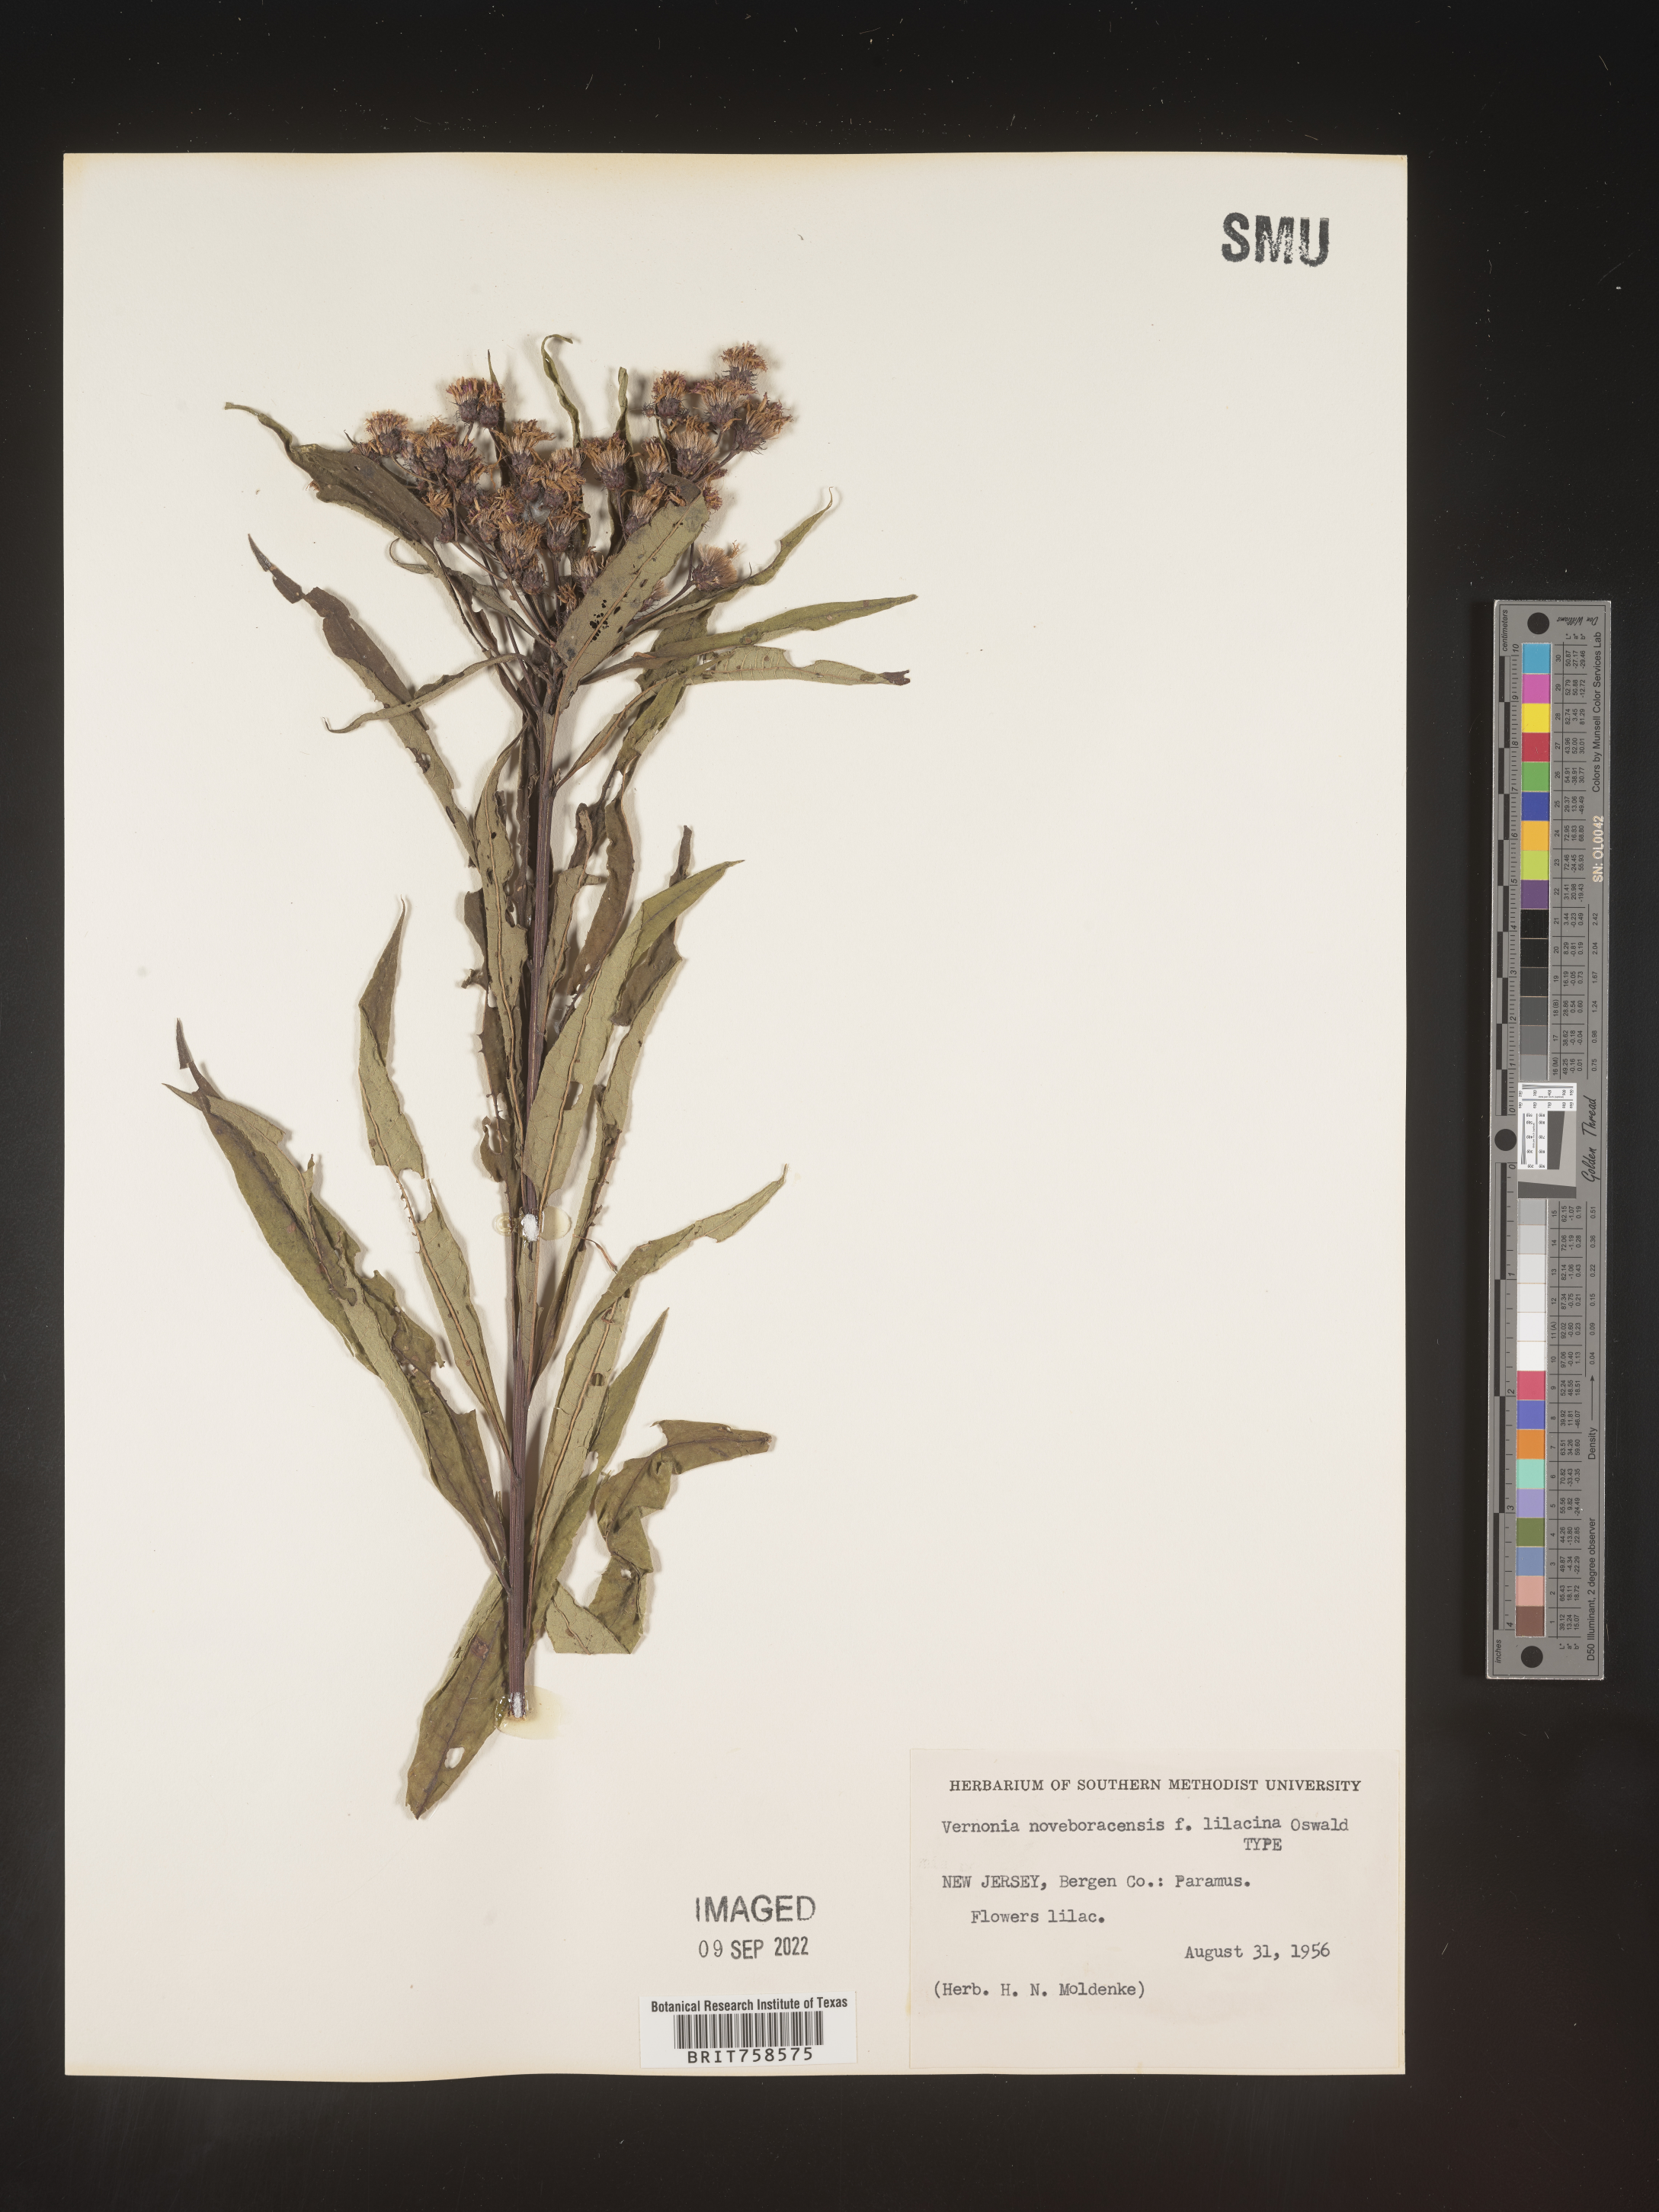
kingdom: Plantae
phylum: Tracheophyta
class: Magnoliopsida
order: Asterales
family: Asteraceae
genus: Vernonia
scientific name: Vernonia noveboracensis
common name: New york ironweed
